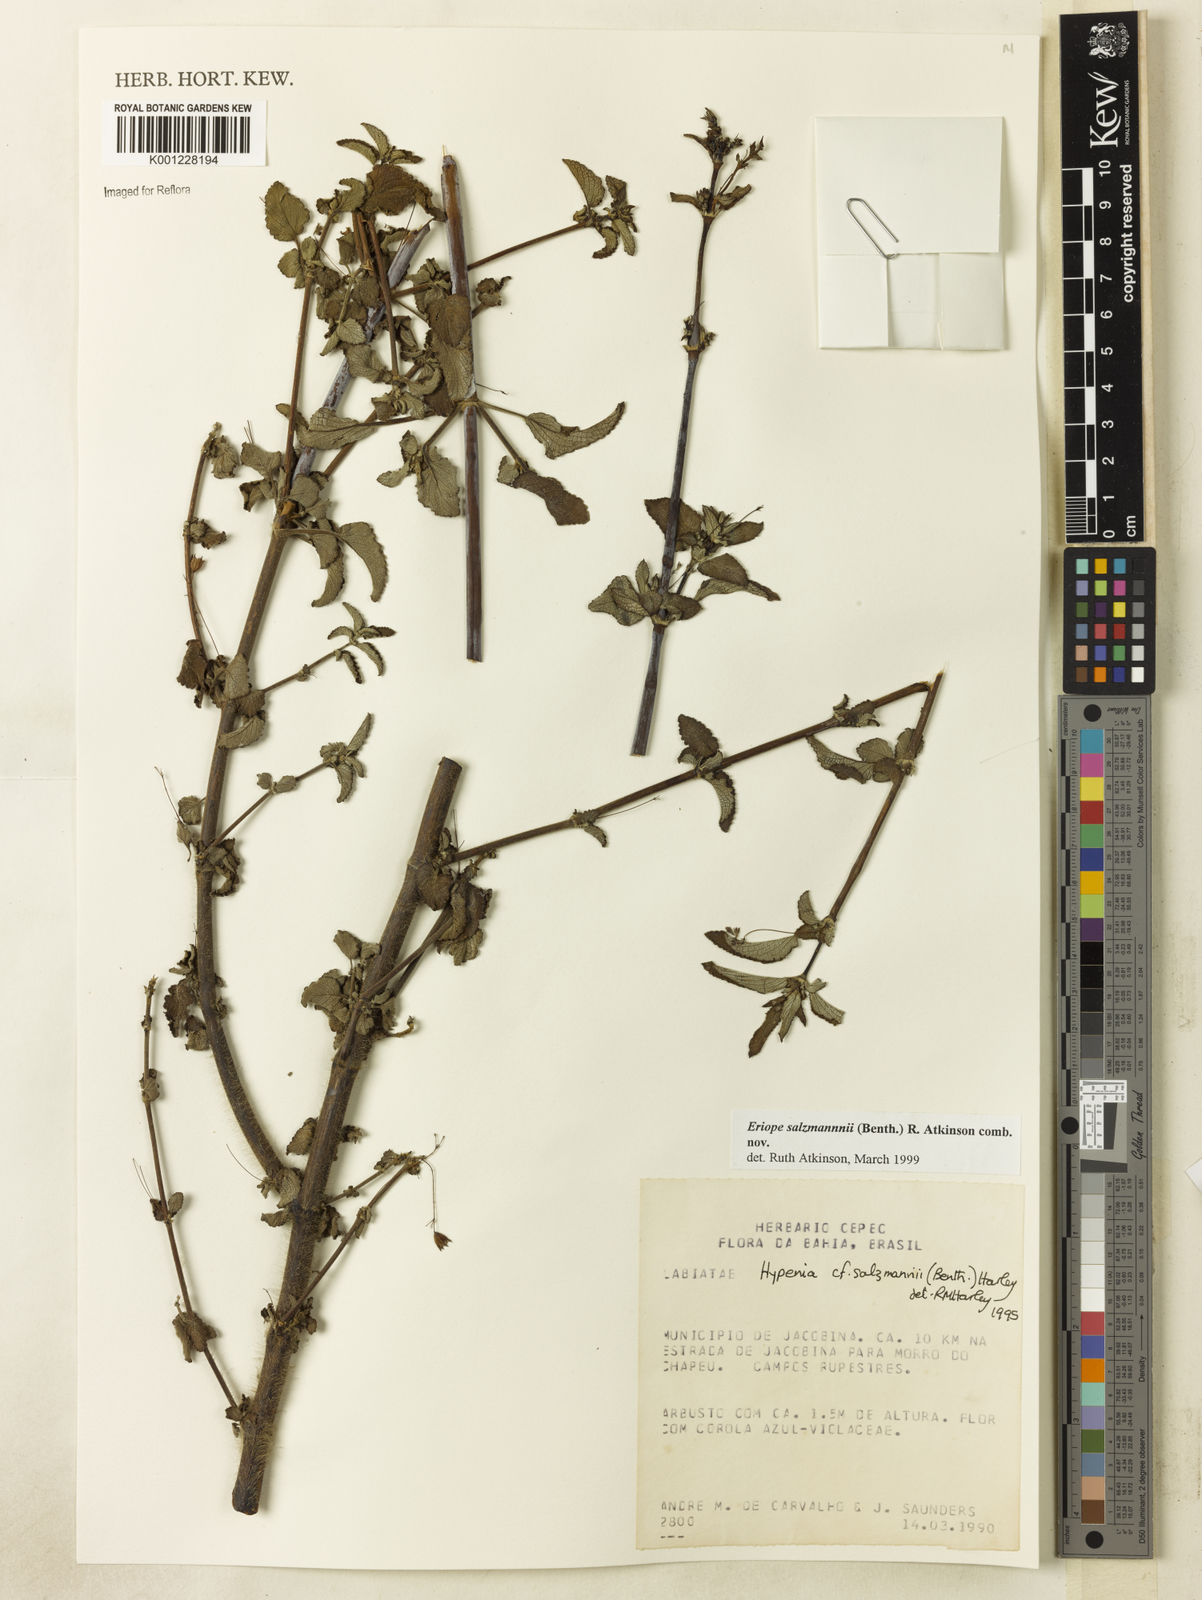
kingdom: Plantae
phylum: Tracheophyta
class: Magnoliopsida
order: Lamiales
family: Lamiaceae
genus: Hypenia
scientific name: Hypenia salzmannii
